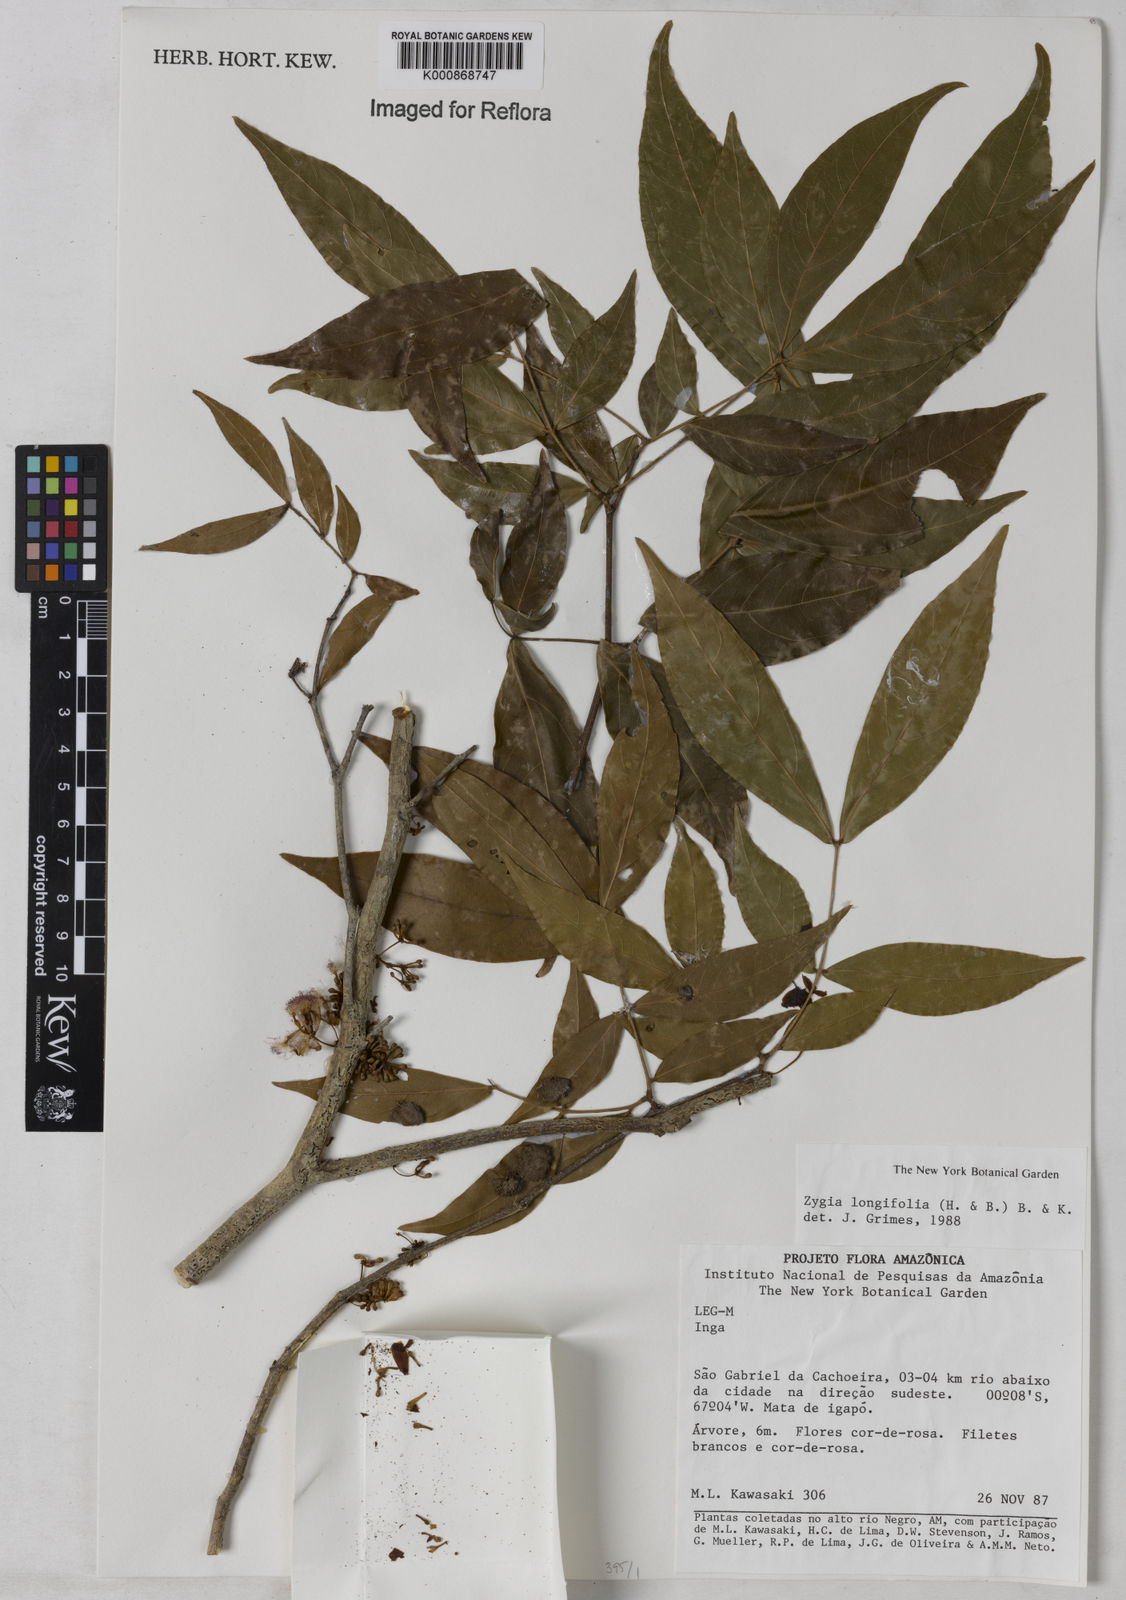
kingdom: Plantae
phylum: Tracheophyta
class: Magnoliopsida
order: Fabales
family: Fabaceae
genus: Zygia
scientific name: Zygia longifolia
